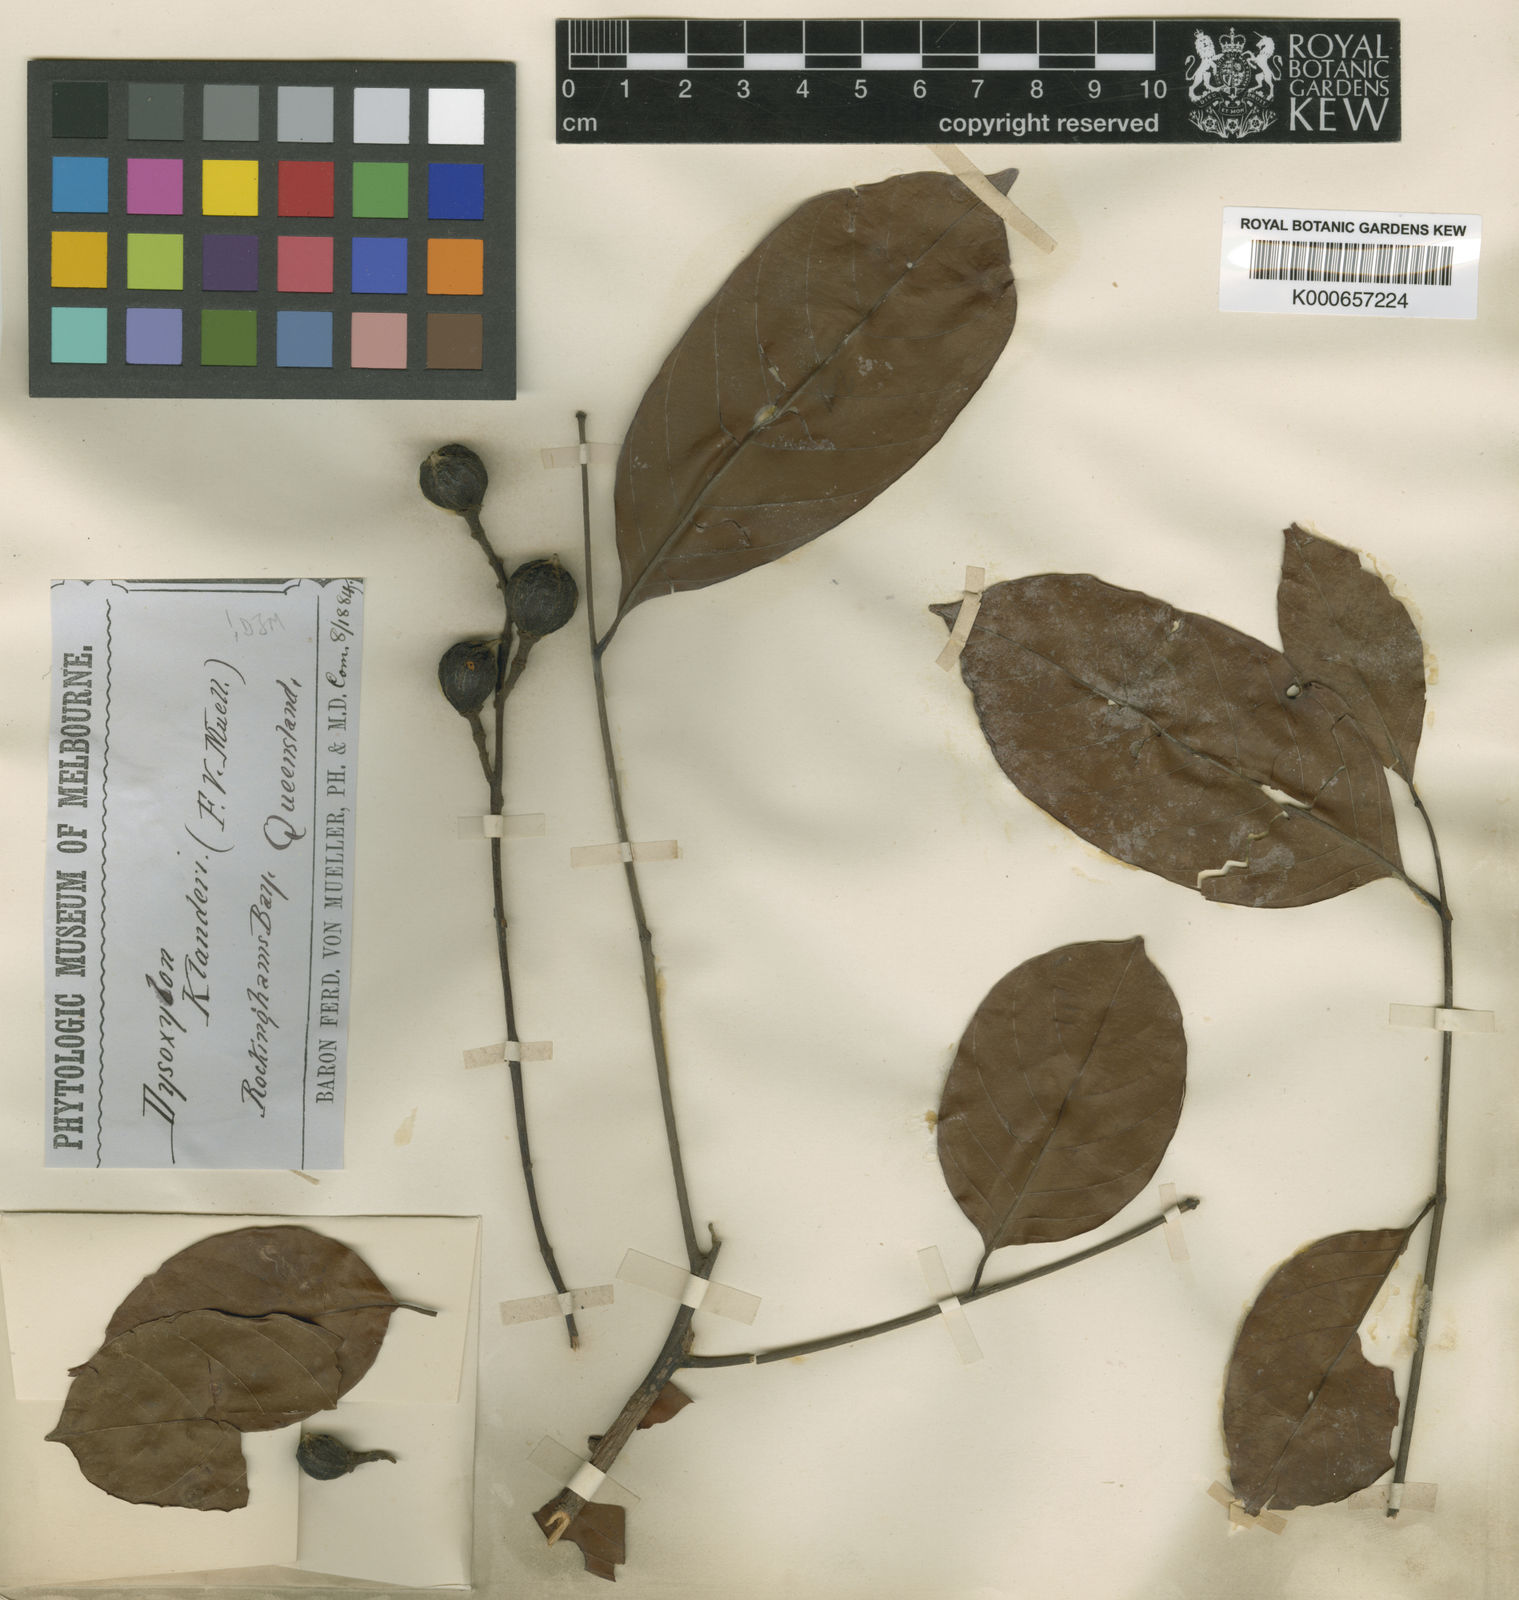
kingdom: Plantae
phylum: Tracheophyta
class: Magnoliopsida
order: Sapindales
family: Meliaceae
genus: Prasoxylon
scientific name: Prasoxylon klanderi
